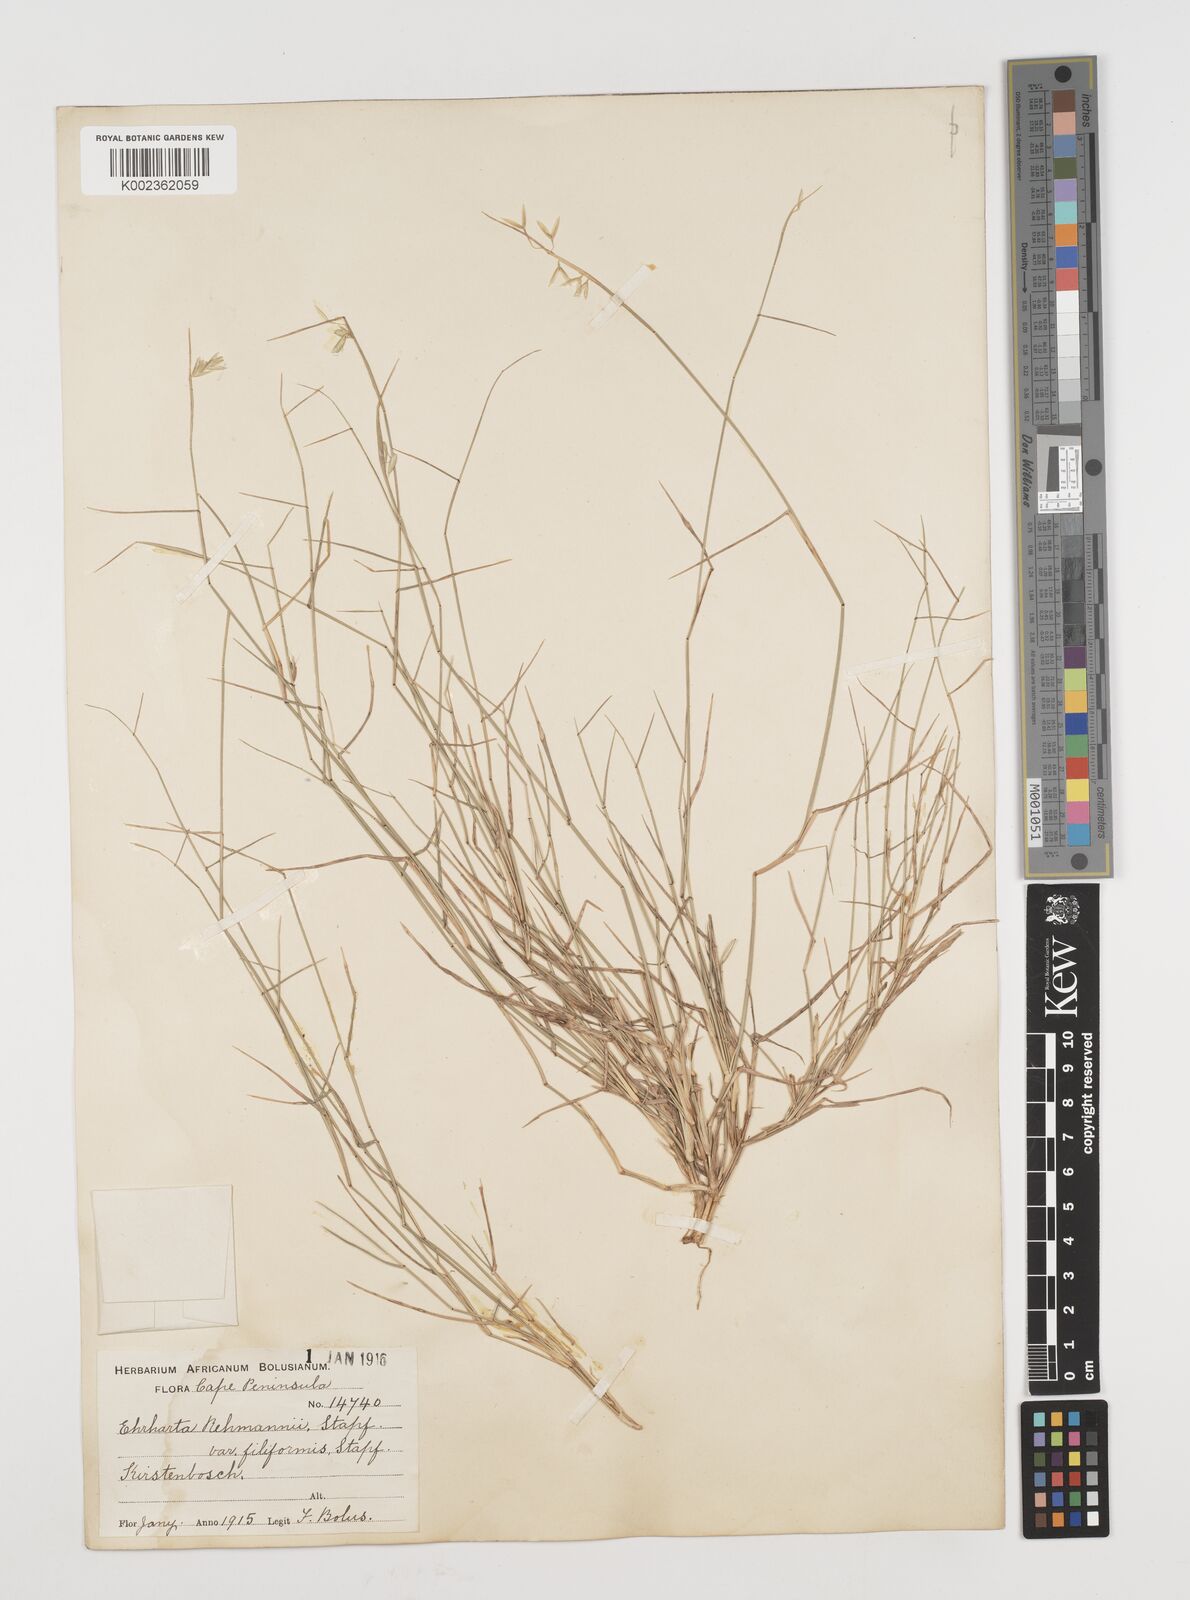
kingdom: Plantae
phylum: Tracheophyta
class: Liliopsida
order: Poales
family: Poaceae
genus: Ehrharta
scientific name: Ehrharta rehmannii
